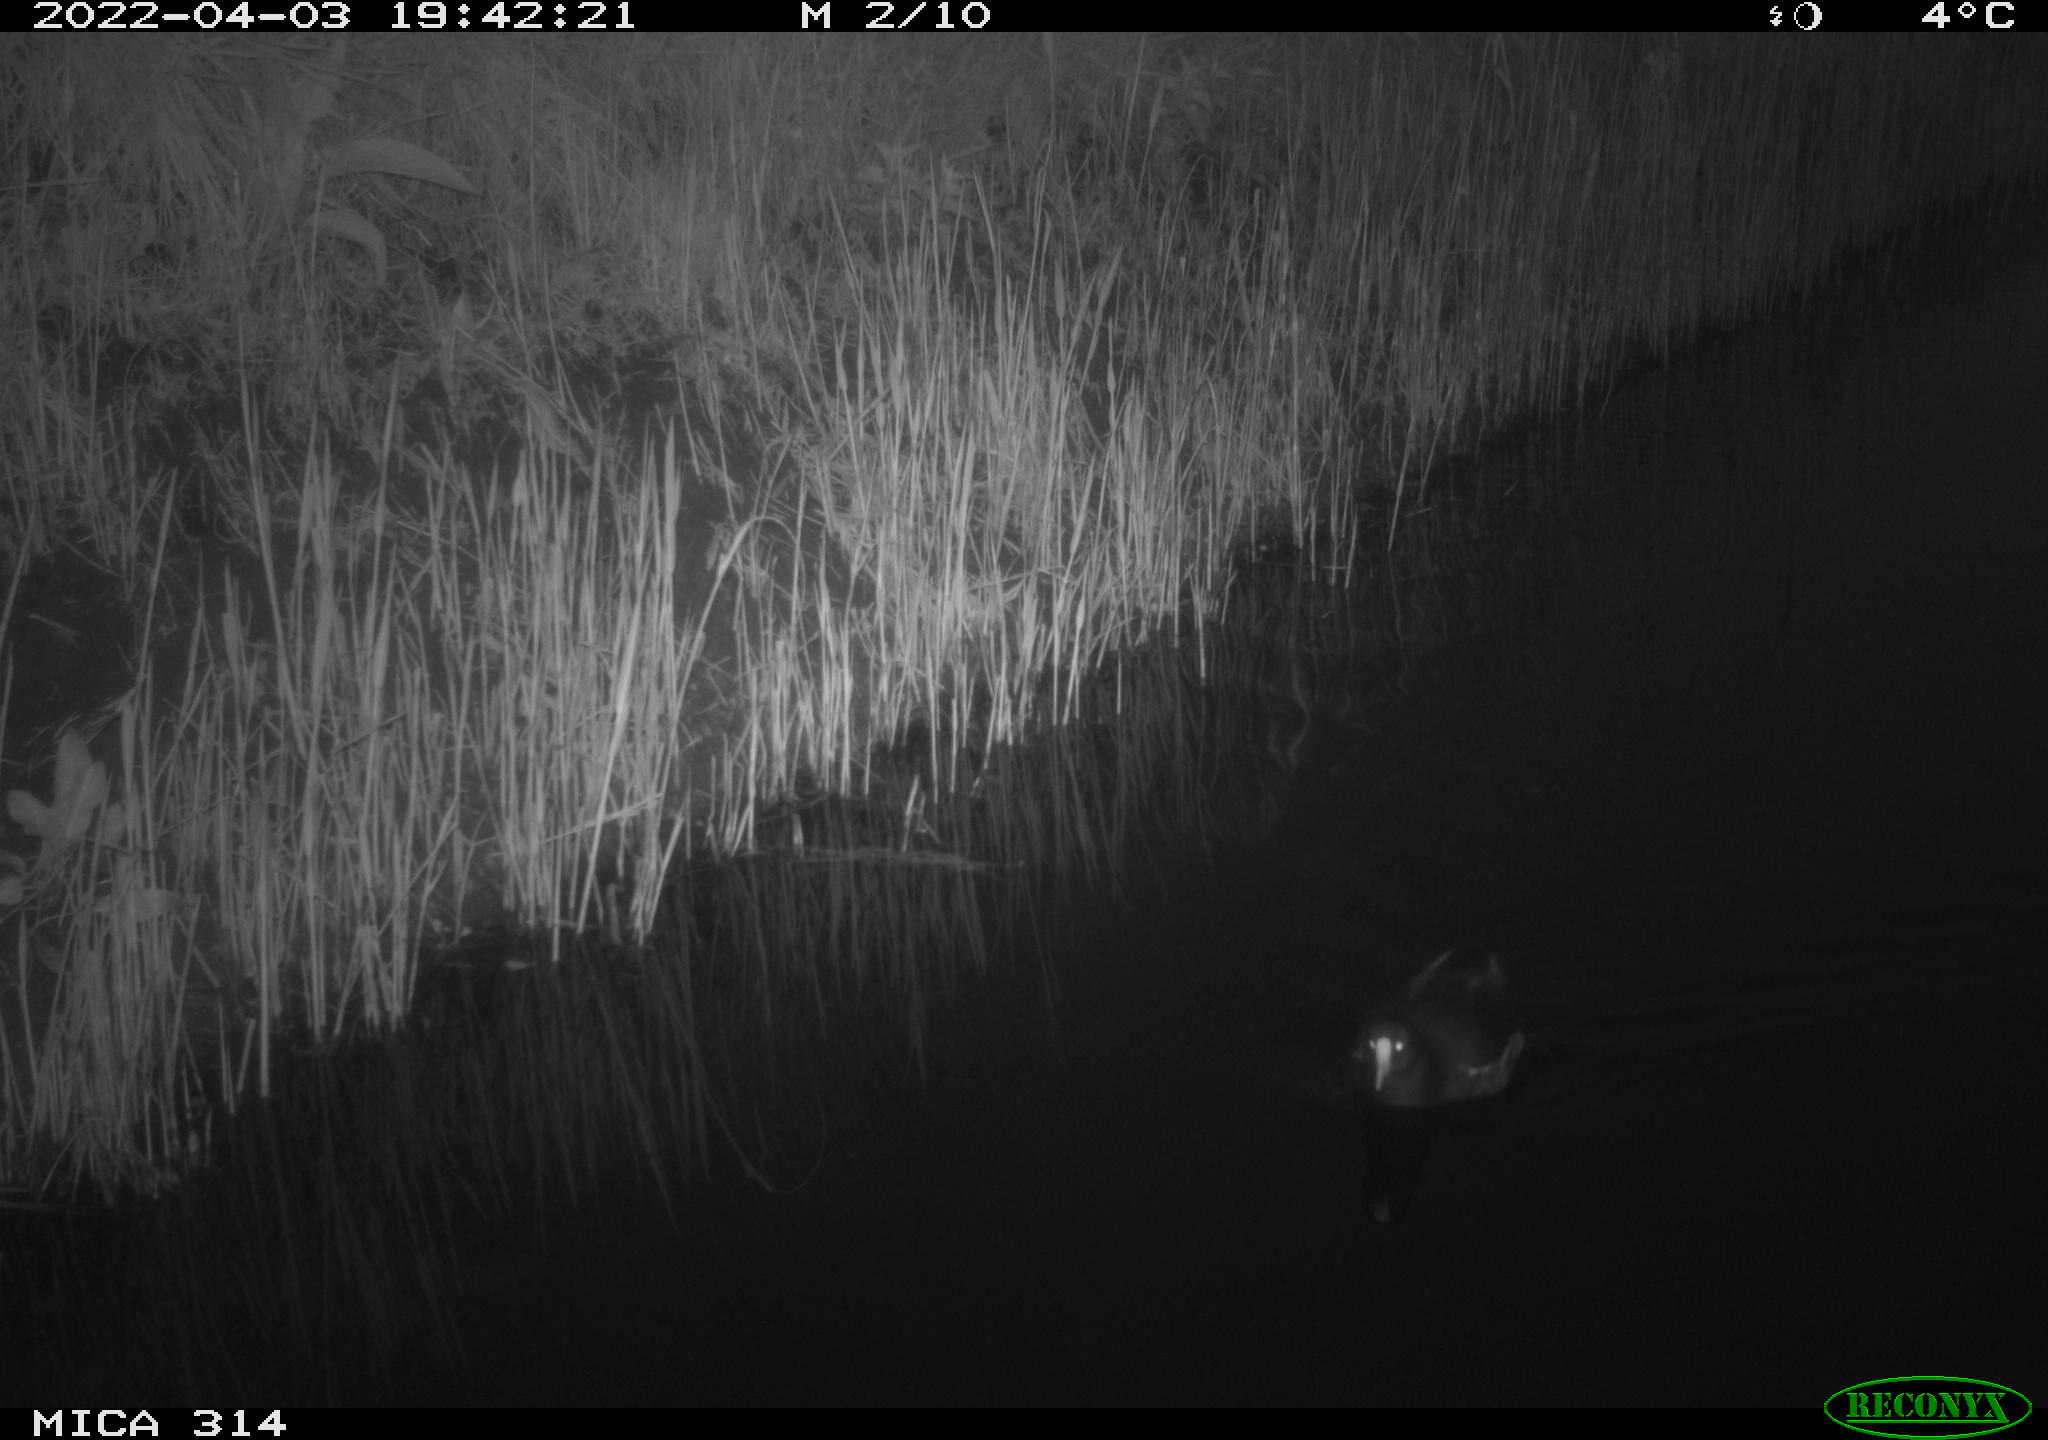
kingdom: Animalia
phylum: Chordata
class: Aves
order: Anseriformes
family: Anatidae
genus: Anas
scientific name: Anas platyrhynchos
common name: Mallard
